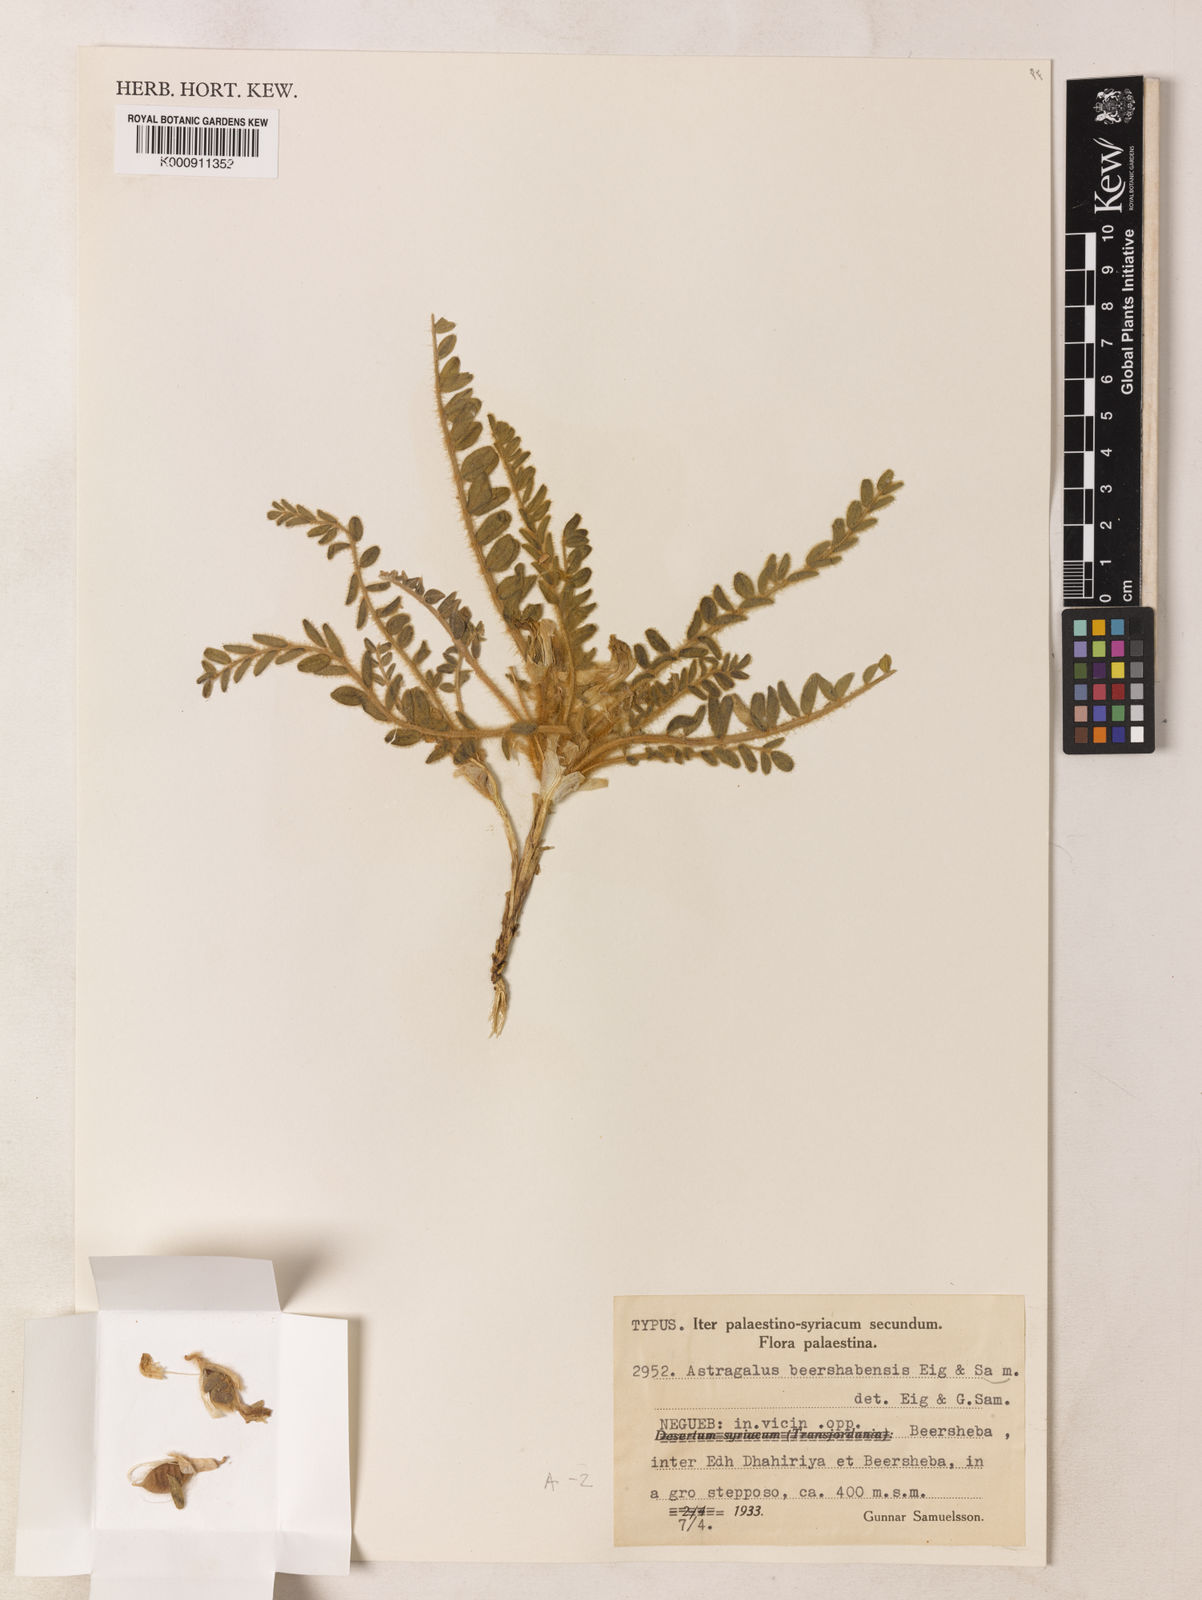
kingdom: Plantae
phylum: Tracheophyta
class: Magnoliopsida
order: Fabales
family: Fabaceae
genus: Astragalus
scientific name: Astragalus caprinus
